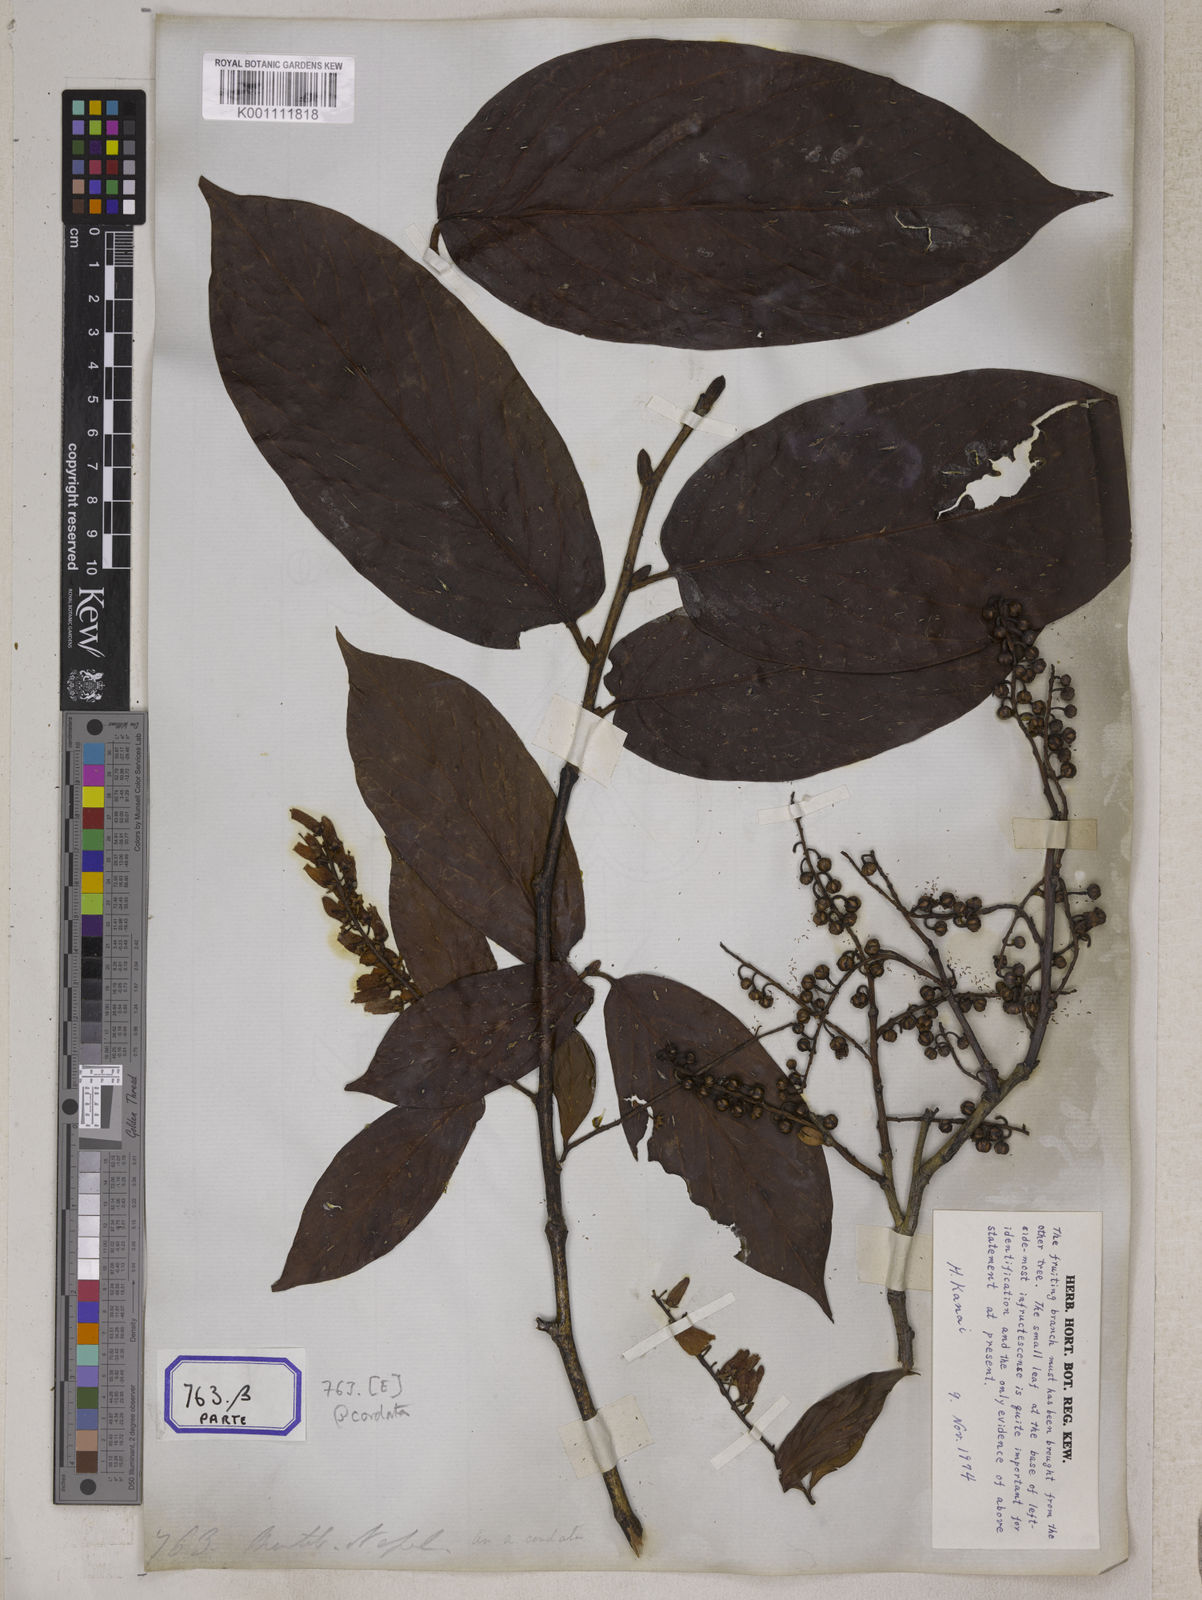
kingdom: Plantae
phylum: Tracheophyta
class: Magnoliopsida
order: Ericales
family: Ericaceae
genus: Lyonia
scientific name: Lyonia ovalifolia
